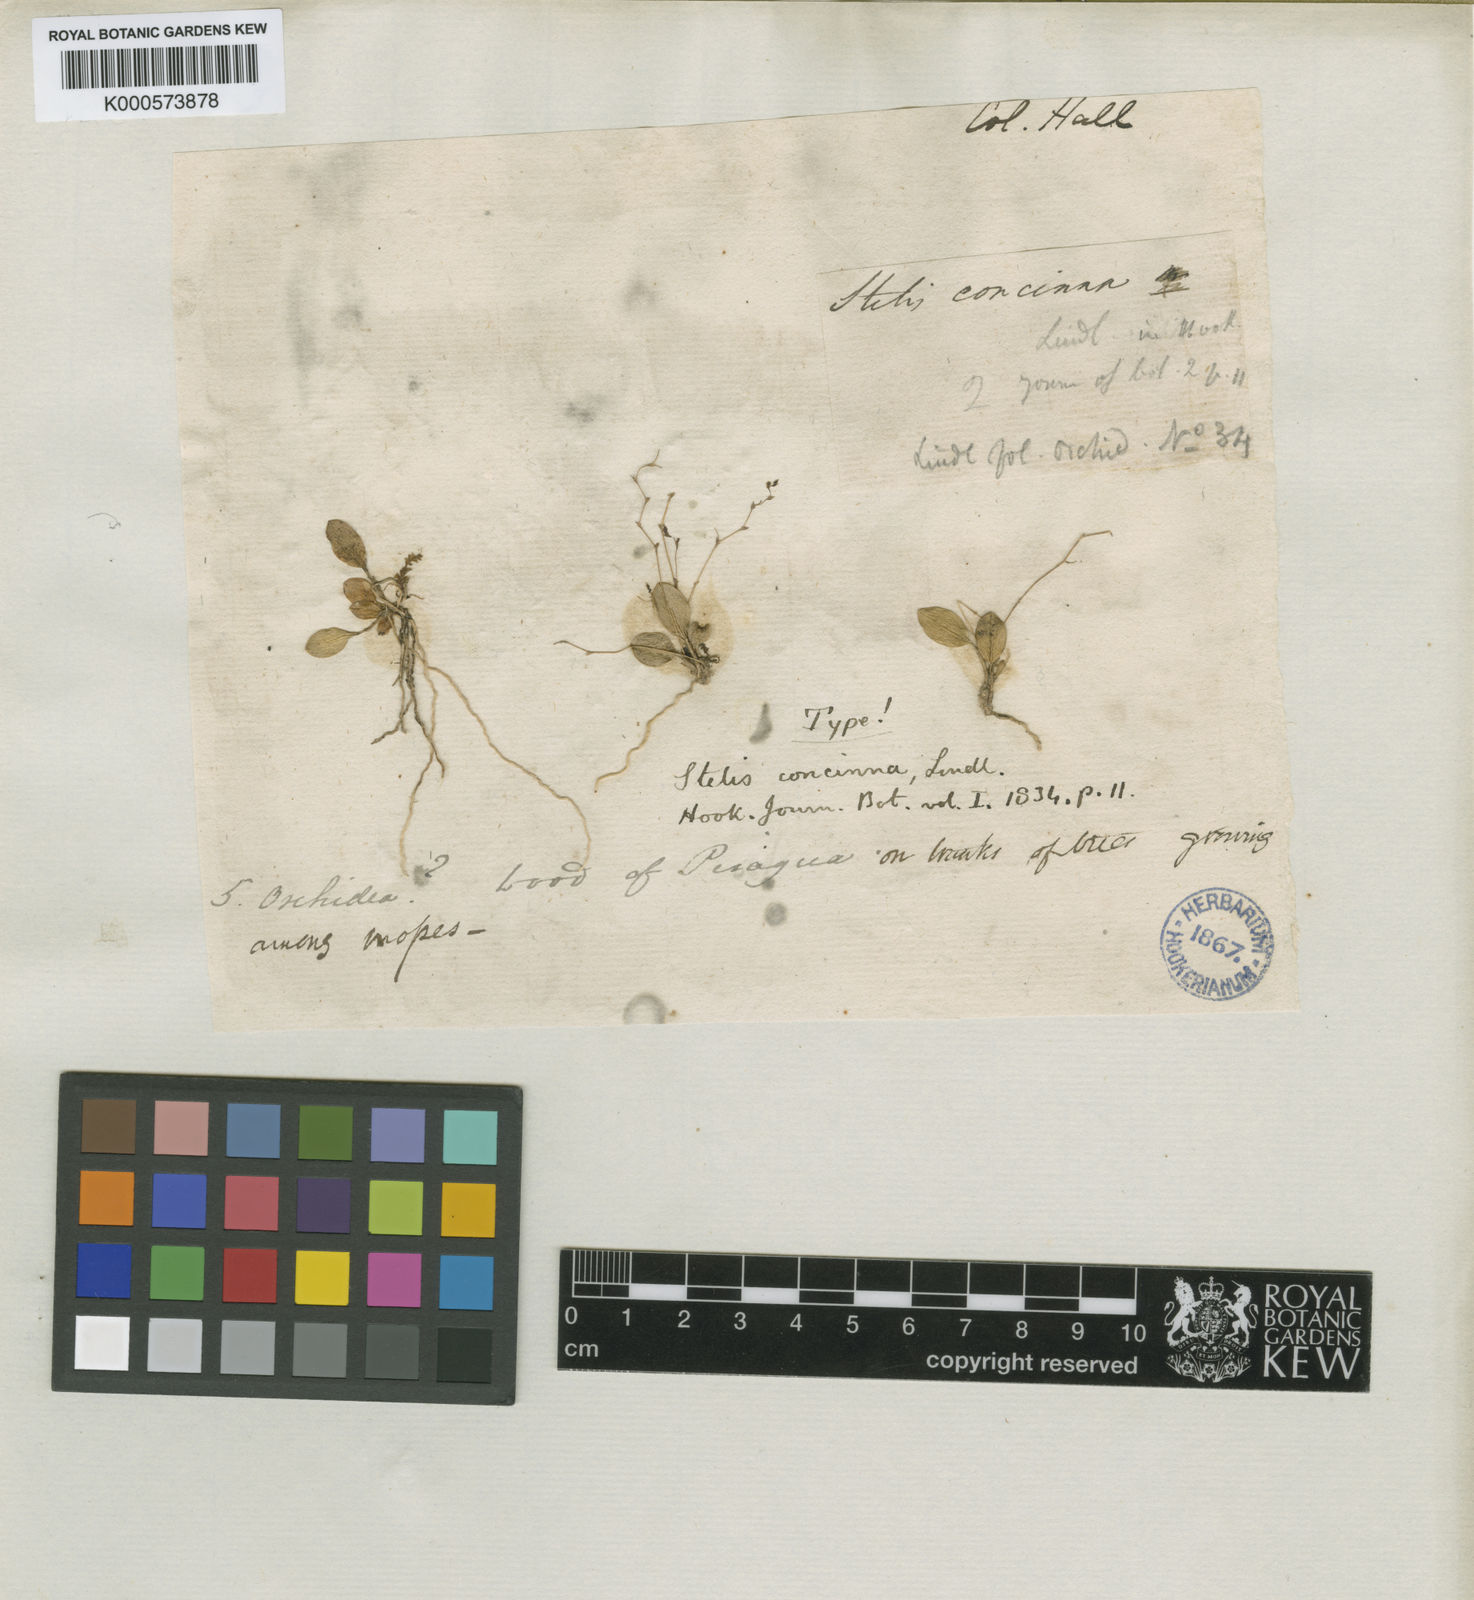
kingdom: Plantae
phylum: Tracheophyta
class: Liliopsida
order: Asparagales
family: Orchidaceae
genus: Stelis
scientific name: Stelis concinna
